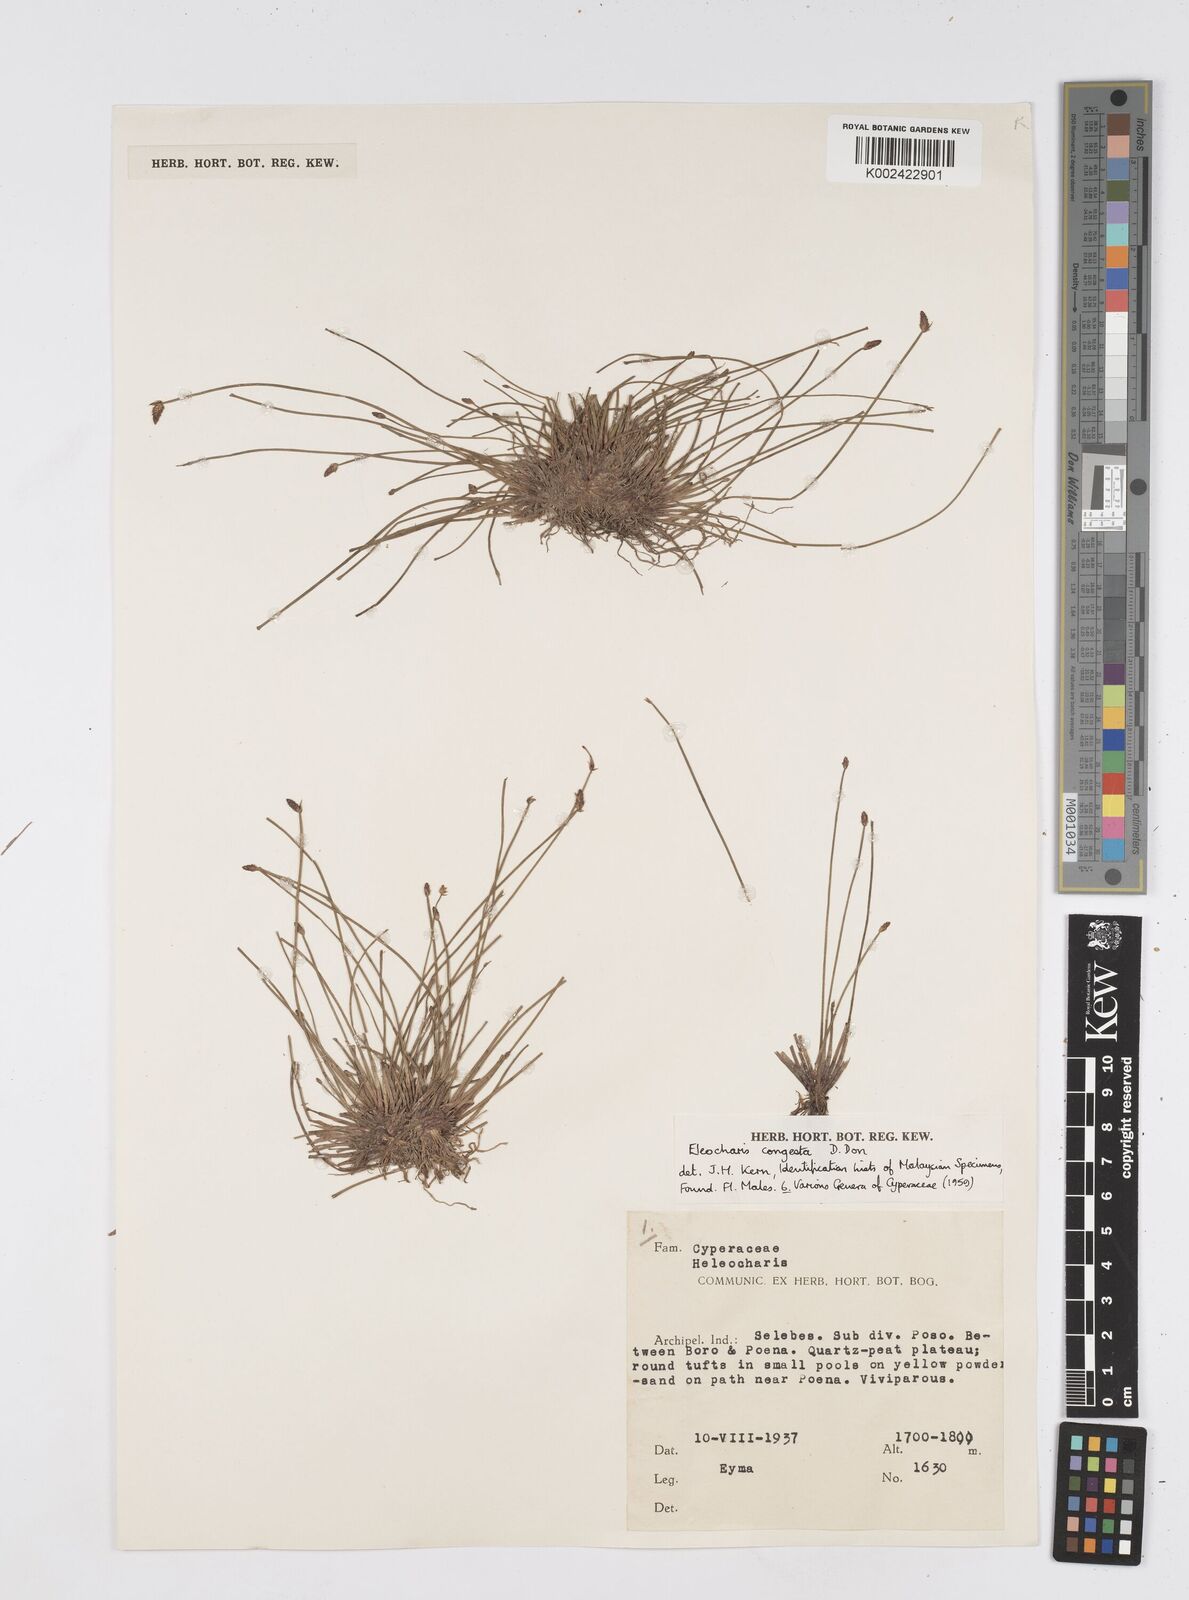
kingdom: Plantae
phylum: Tracheophyta
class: Liliopsida
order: Poales
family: Cyperaceae
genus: Eleocharis
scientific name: Eleocharis congesta
